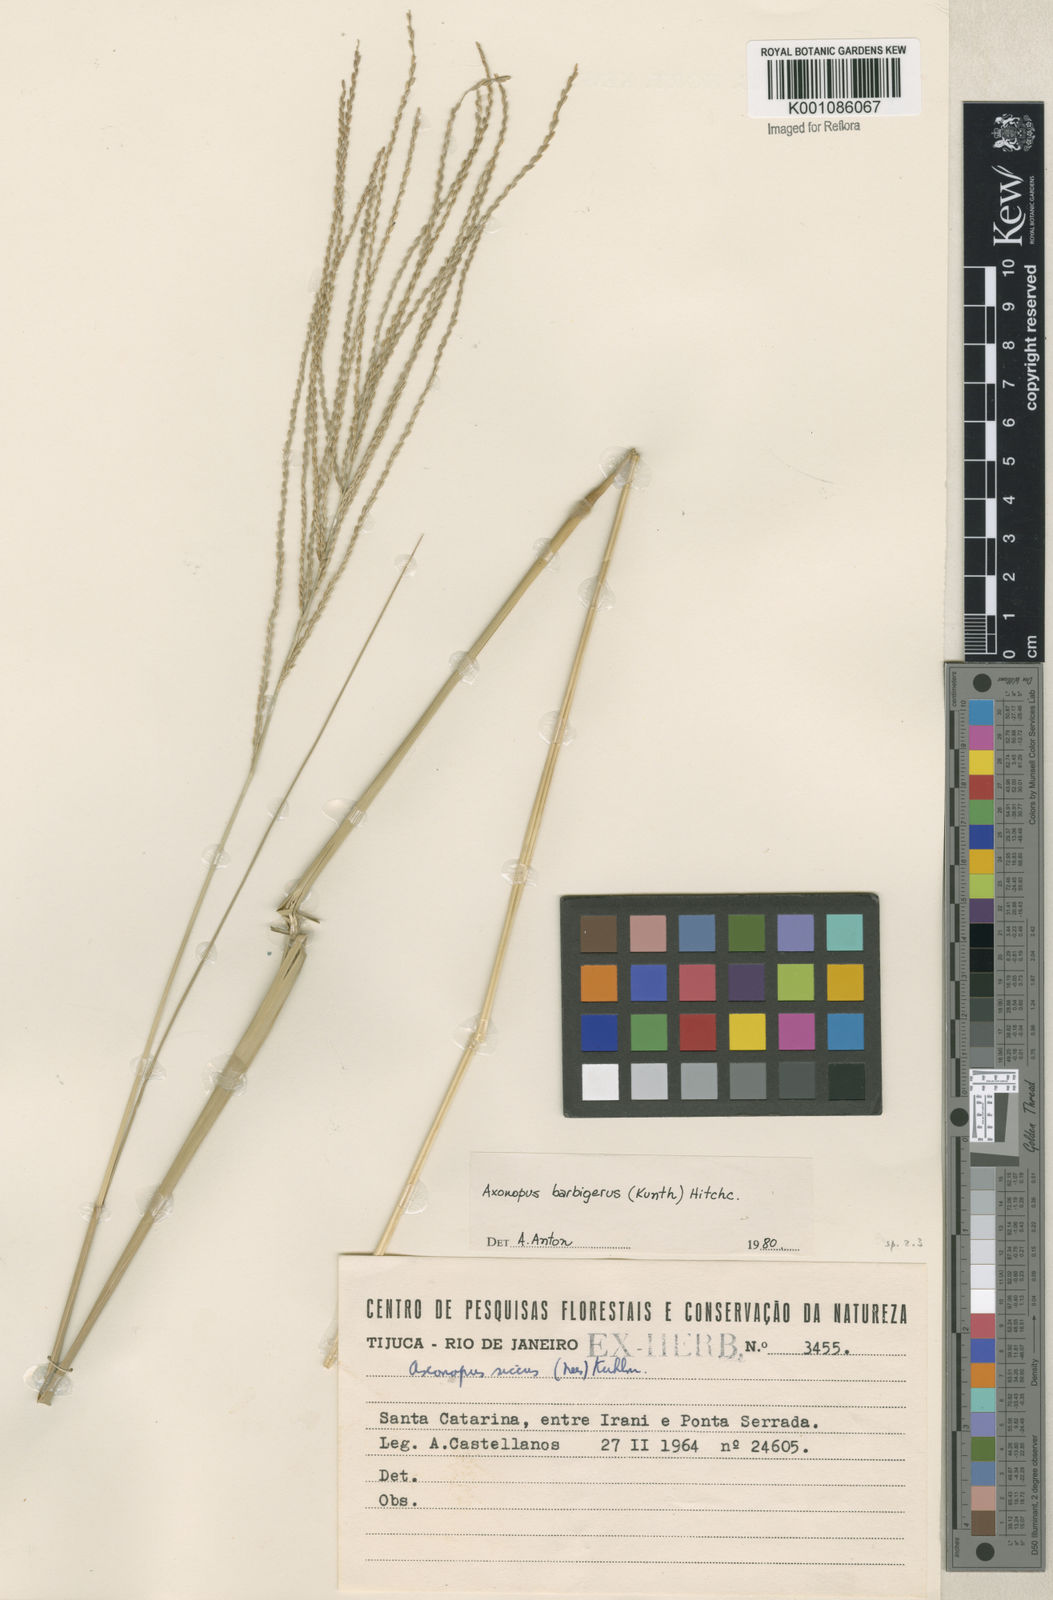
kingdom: Plantae
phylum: Tracheophyta
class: Liliopsida
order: Poales
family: Poaceae
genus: Axonopus
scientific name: Axonopus siccus
